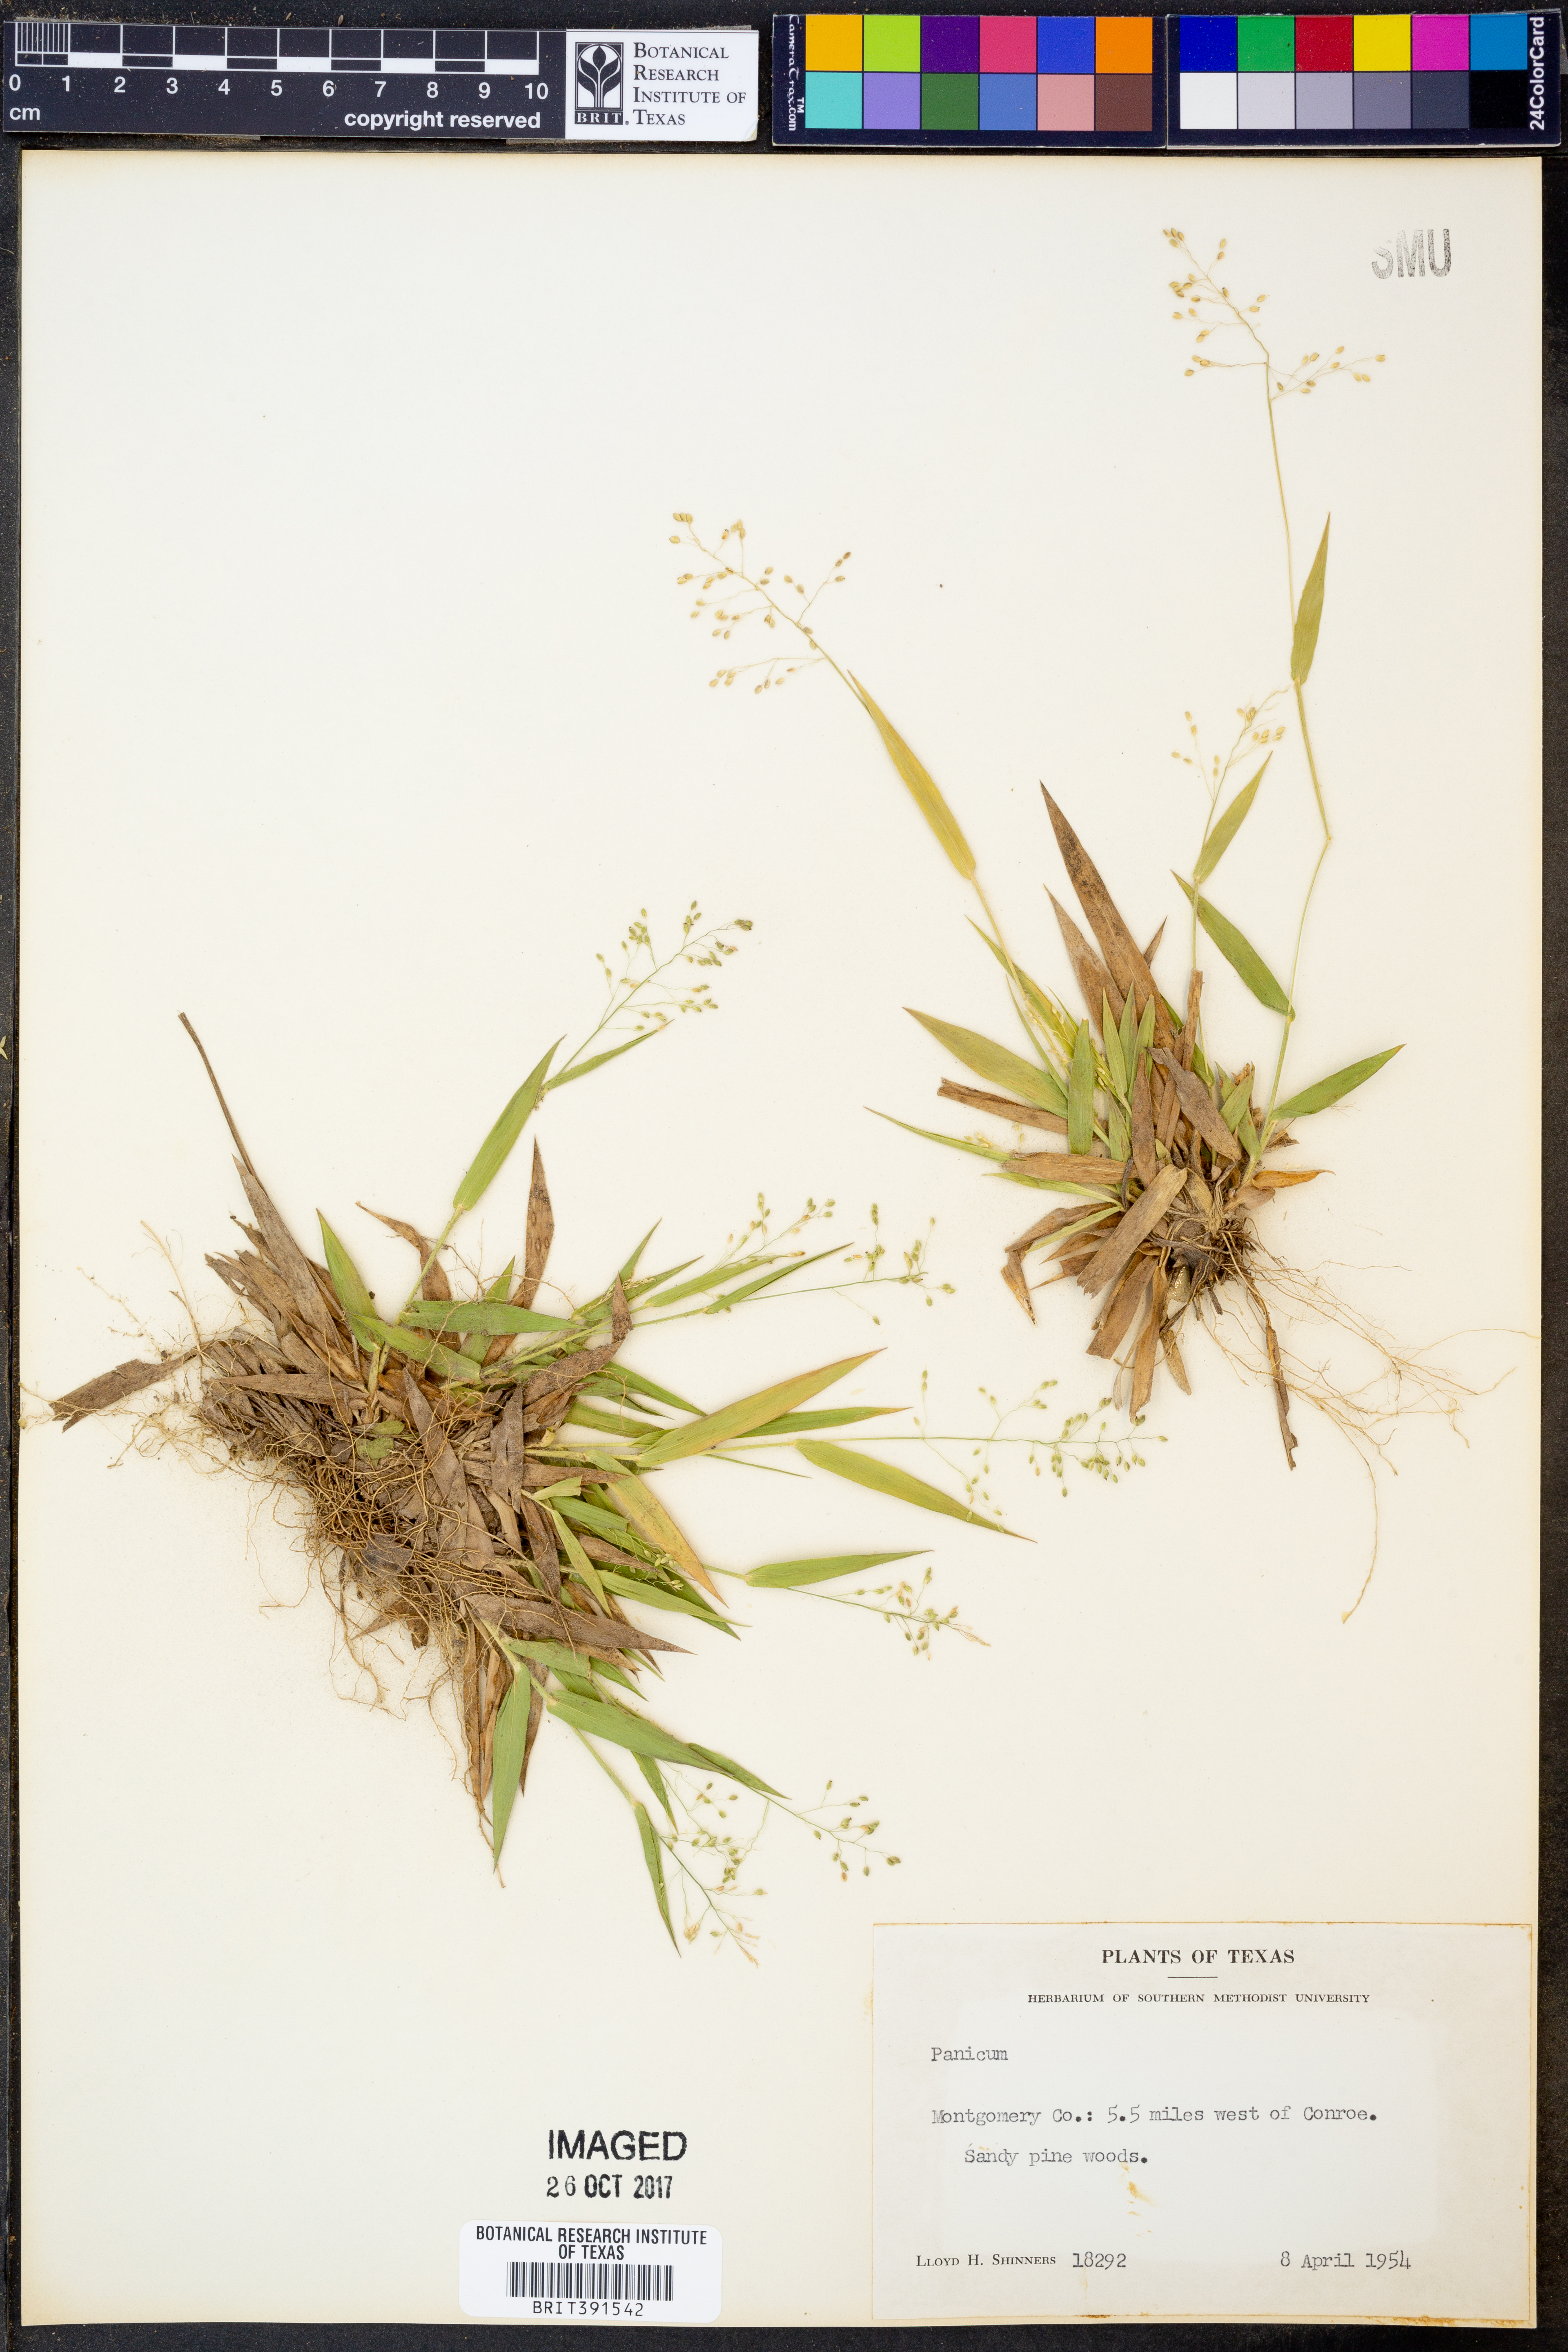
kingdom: Plantae
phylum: Tracheophyta
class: Liliopsida
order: Poales
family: Poaceae
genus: Panicum
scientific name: Panicum
